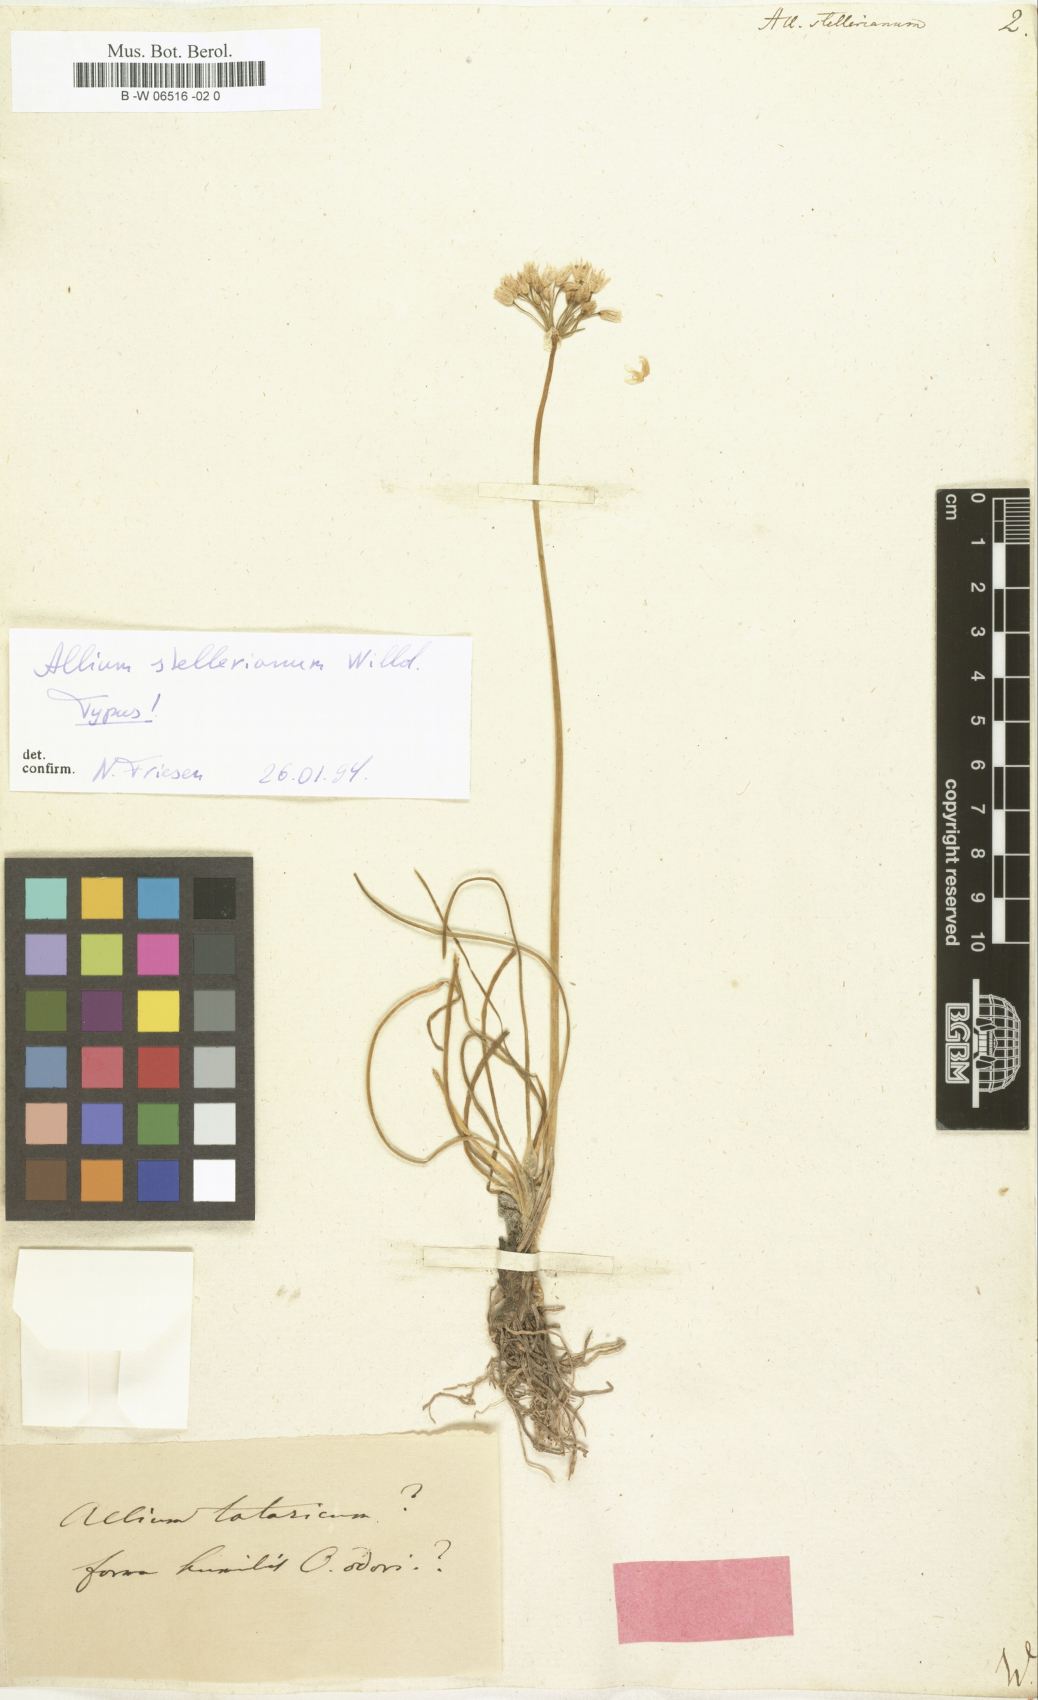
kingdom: Plantae
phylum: Tracheophyta
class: Liliopsida
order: Asparagales
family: Amaryllidaceae
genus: Allium
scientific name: Allium stellerianum
